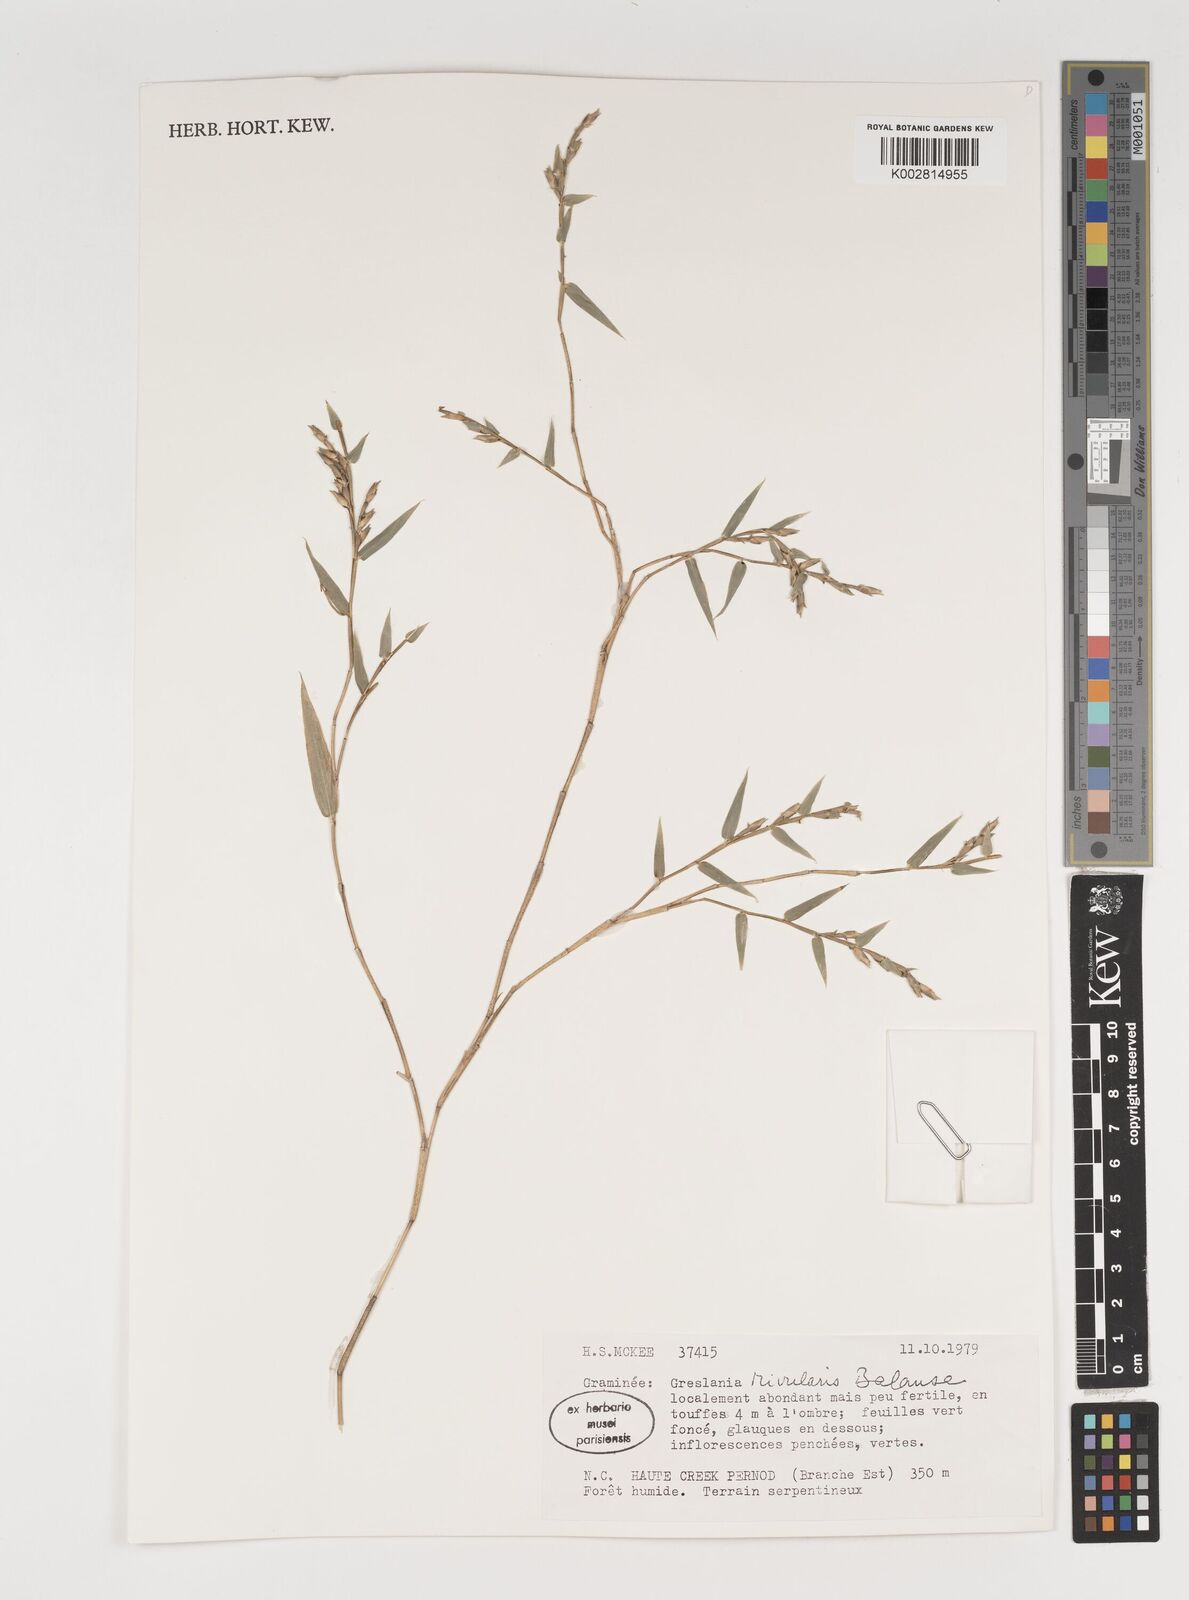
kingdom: Plantae
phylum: Tracheophyta
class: Liliopsida
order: Poales
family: Poaceae
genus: Greslania
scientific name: Greslania rivularis
